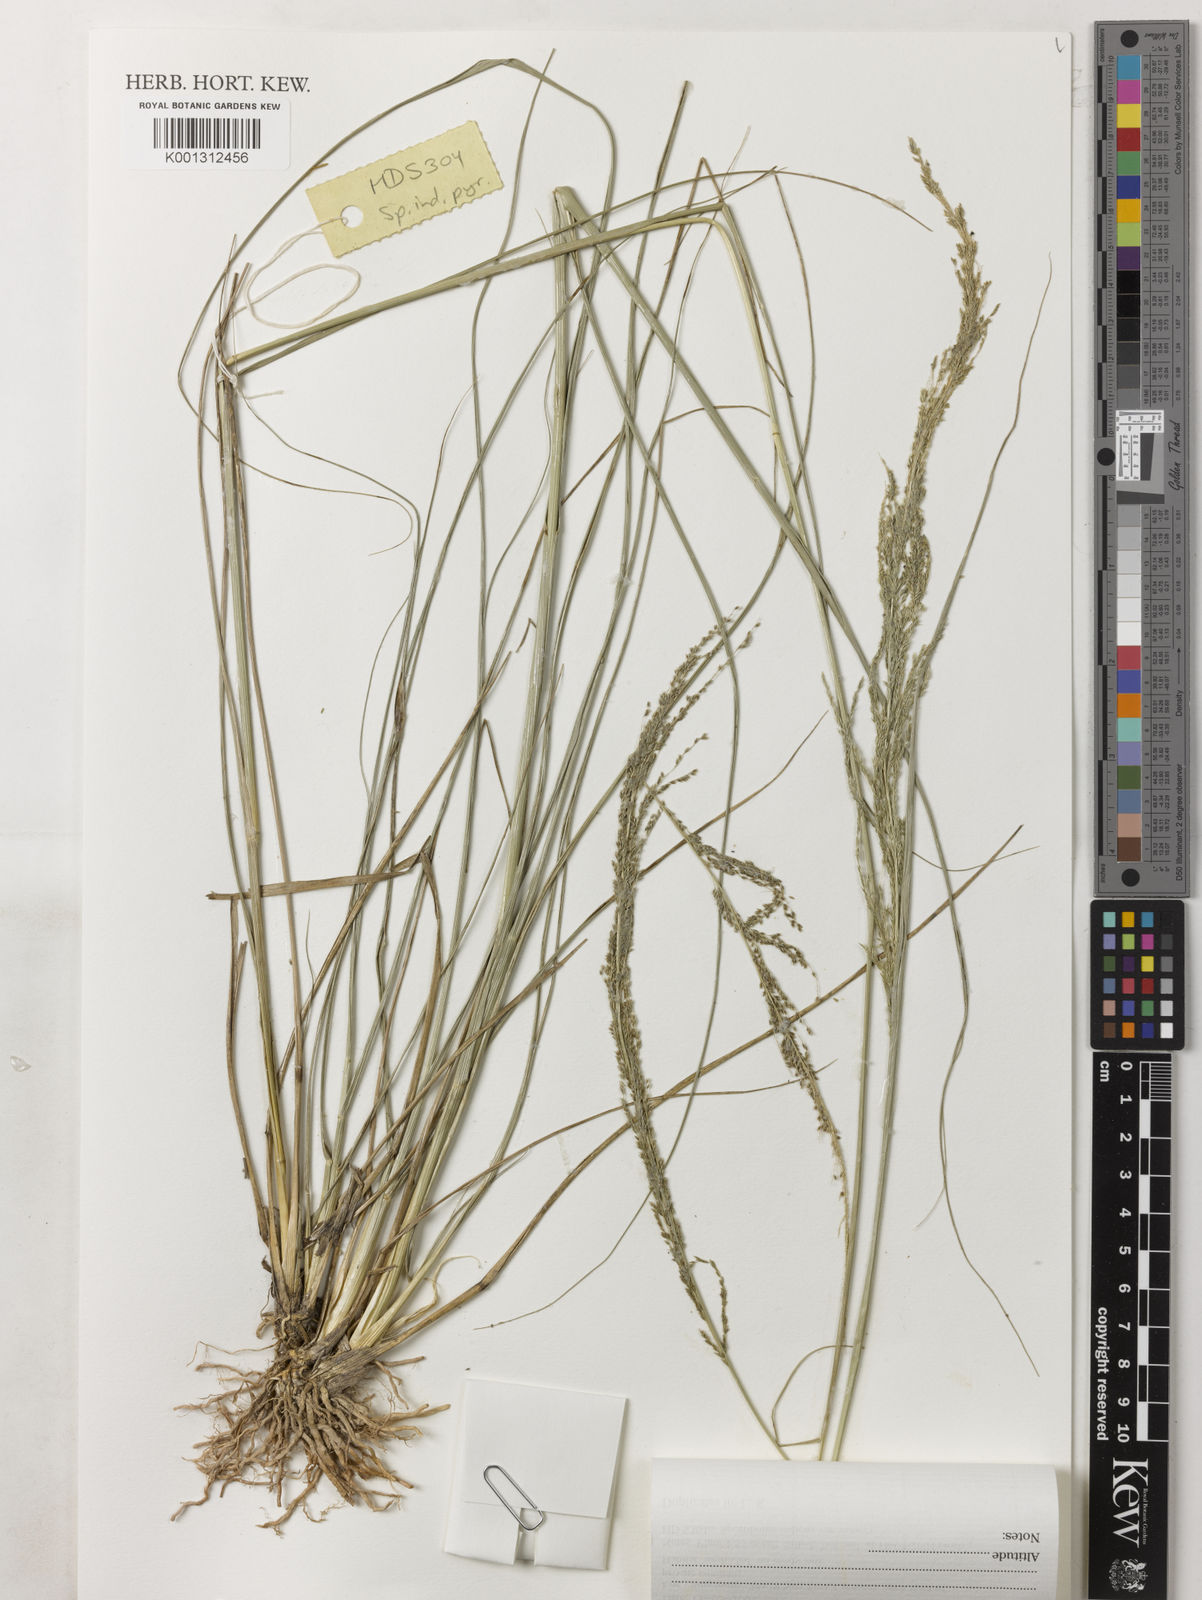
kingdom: Plantae
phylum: Tracheophyta
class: Liliopsida
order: Poales
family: Poaceae
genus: Sporobolus
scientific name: Sporobolus pyramidalis
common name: West indian dropseed
